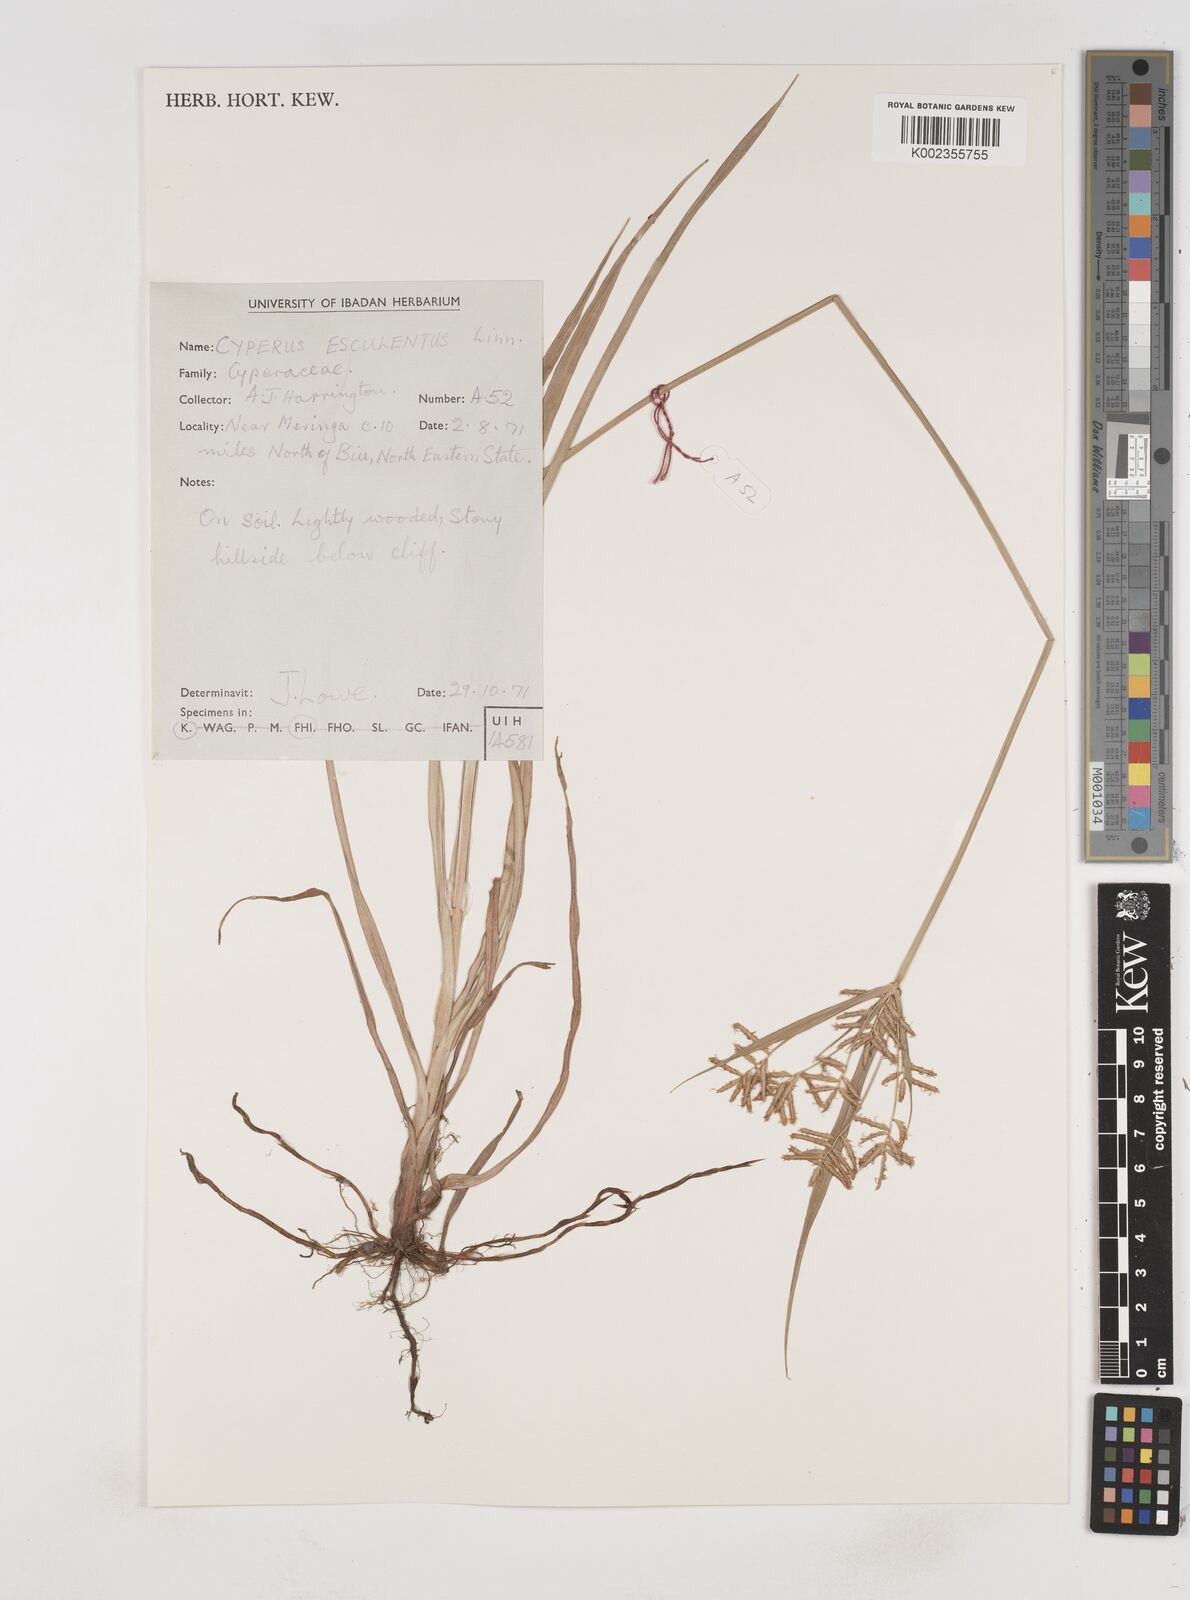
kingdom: Plantae
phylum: Tracheophyta
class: Liliopsida
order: Poales
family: Cyperaceae
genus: Cyperus
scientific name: Cyperus esculentus
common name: Yellow nutsedge
